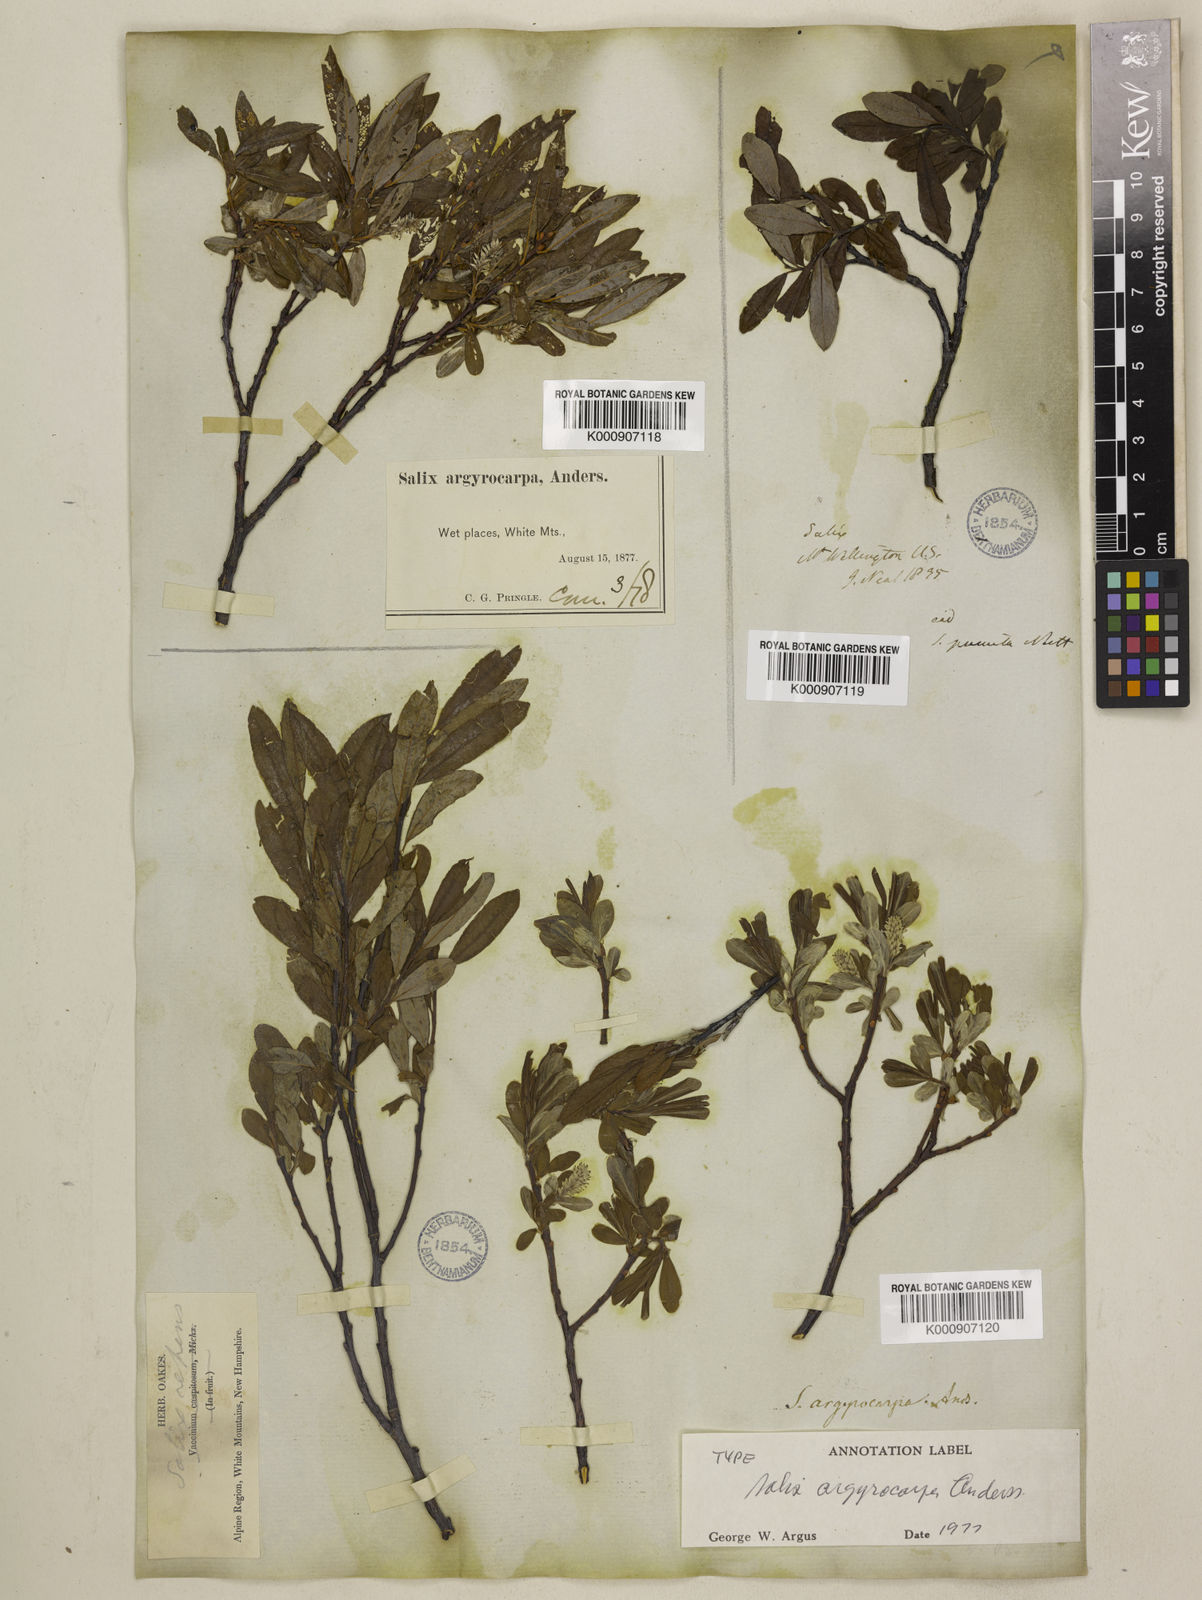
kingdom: Plantae
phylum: Tracheophyta
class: Magnoliopsida
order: Malpighiales
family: Salicaceae
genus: Salix
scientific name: Salix argyrocarpa
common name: Labrador willow
